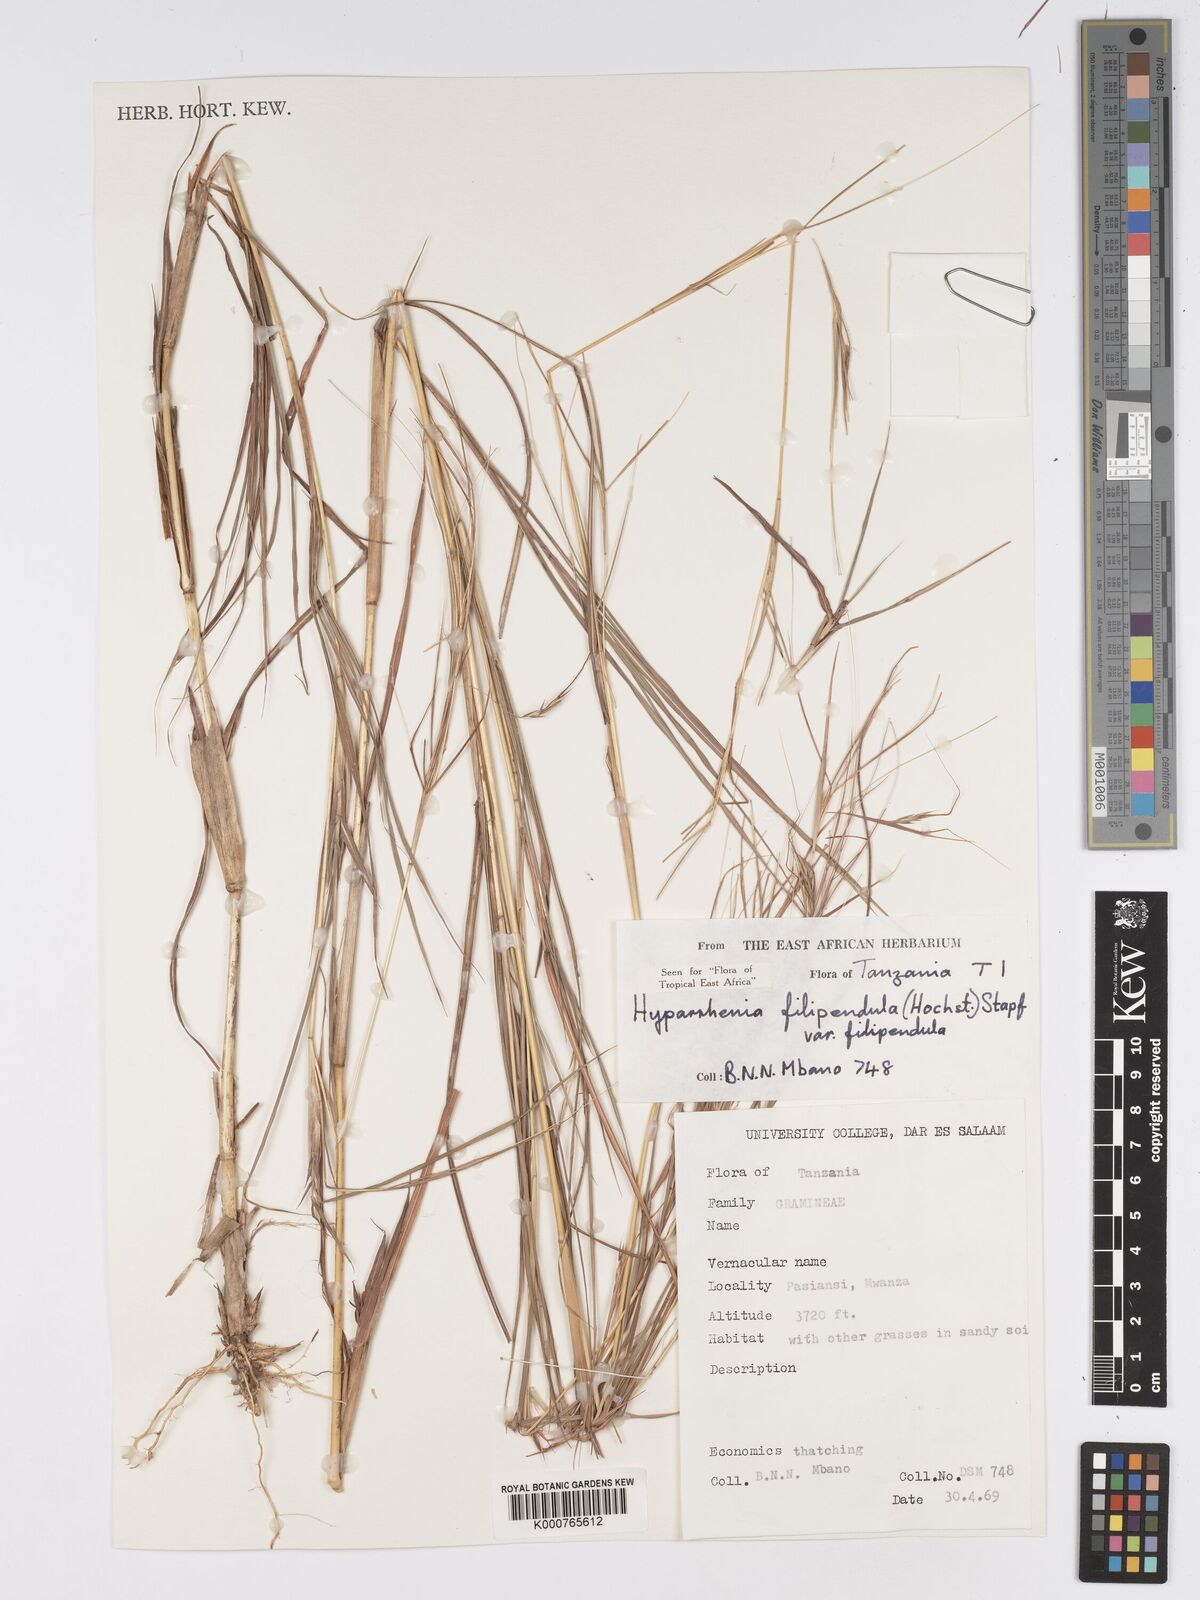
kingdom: Plantae
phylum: Tracheophyta
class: Liliopsida
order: Poales
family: Poaceae
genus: Hyparrhenia
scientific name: Hyparrhenia filipendula
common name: Tambookie grass
